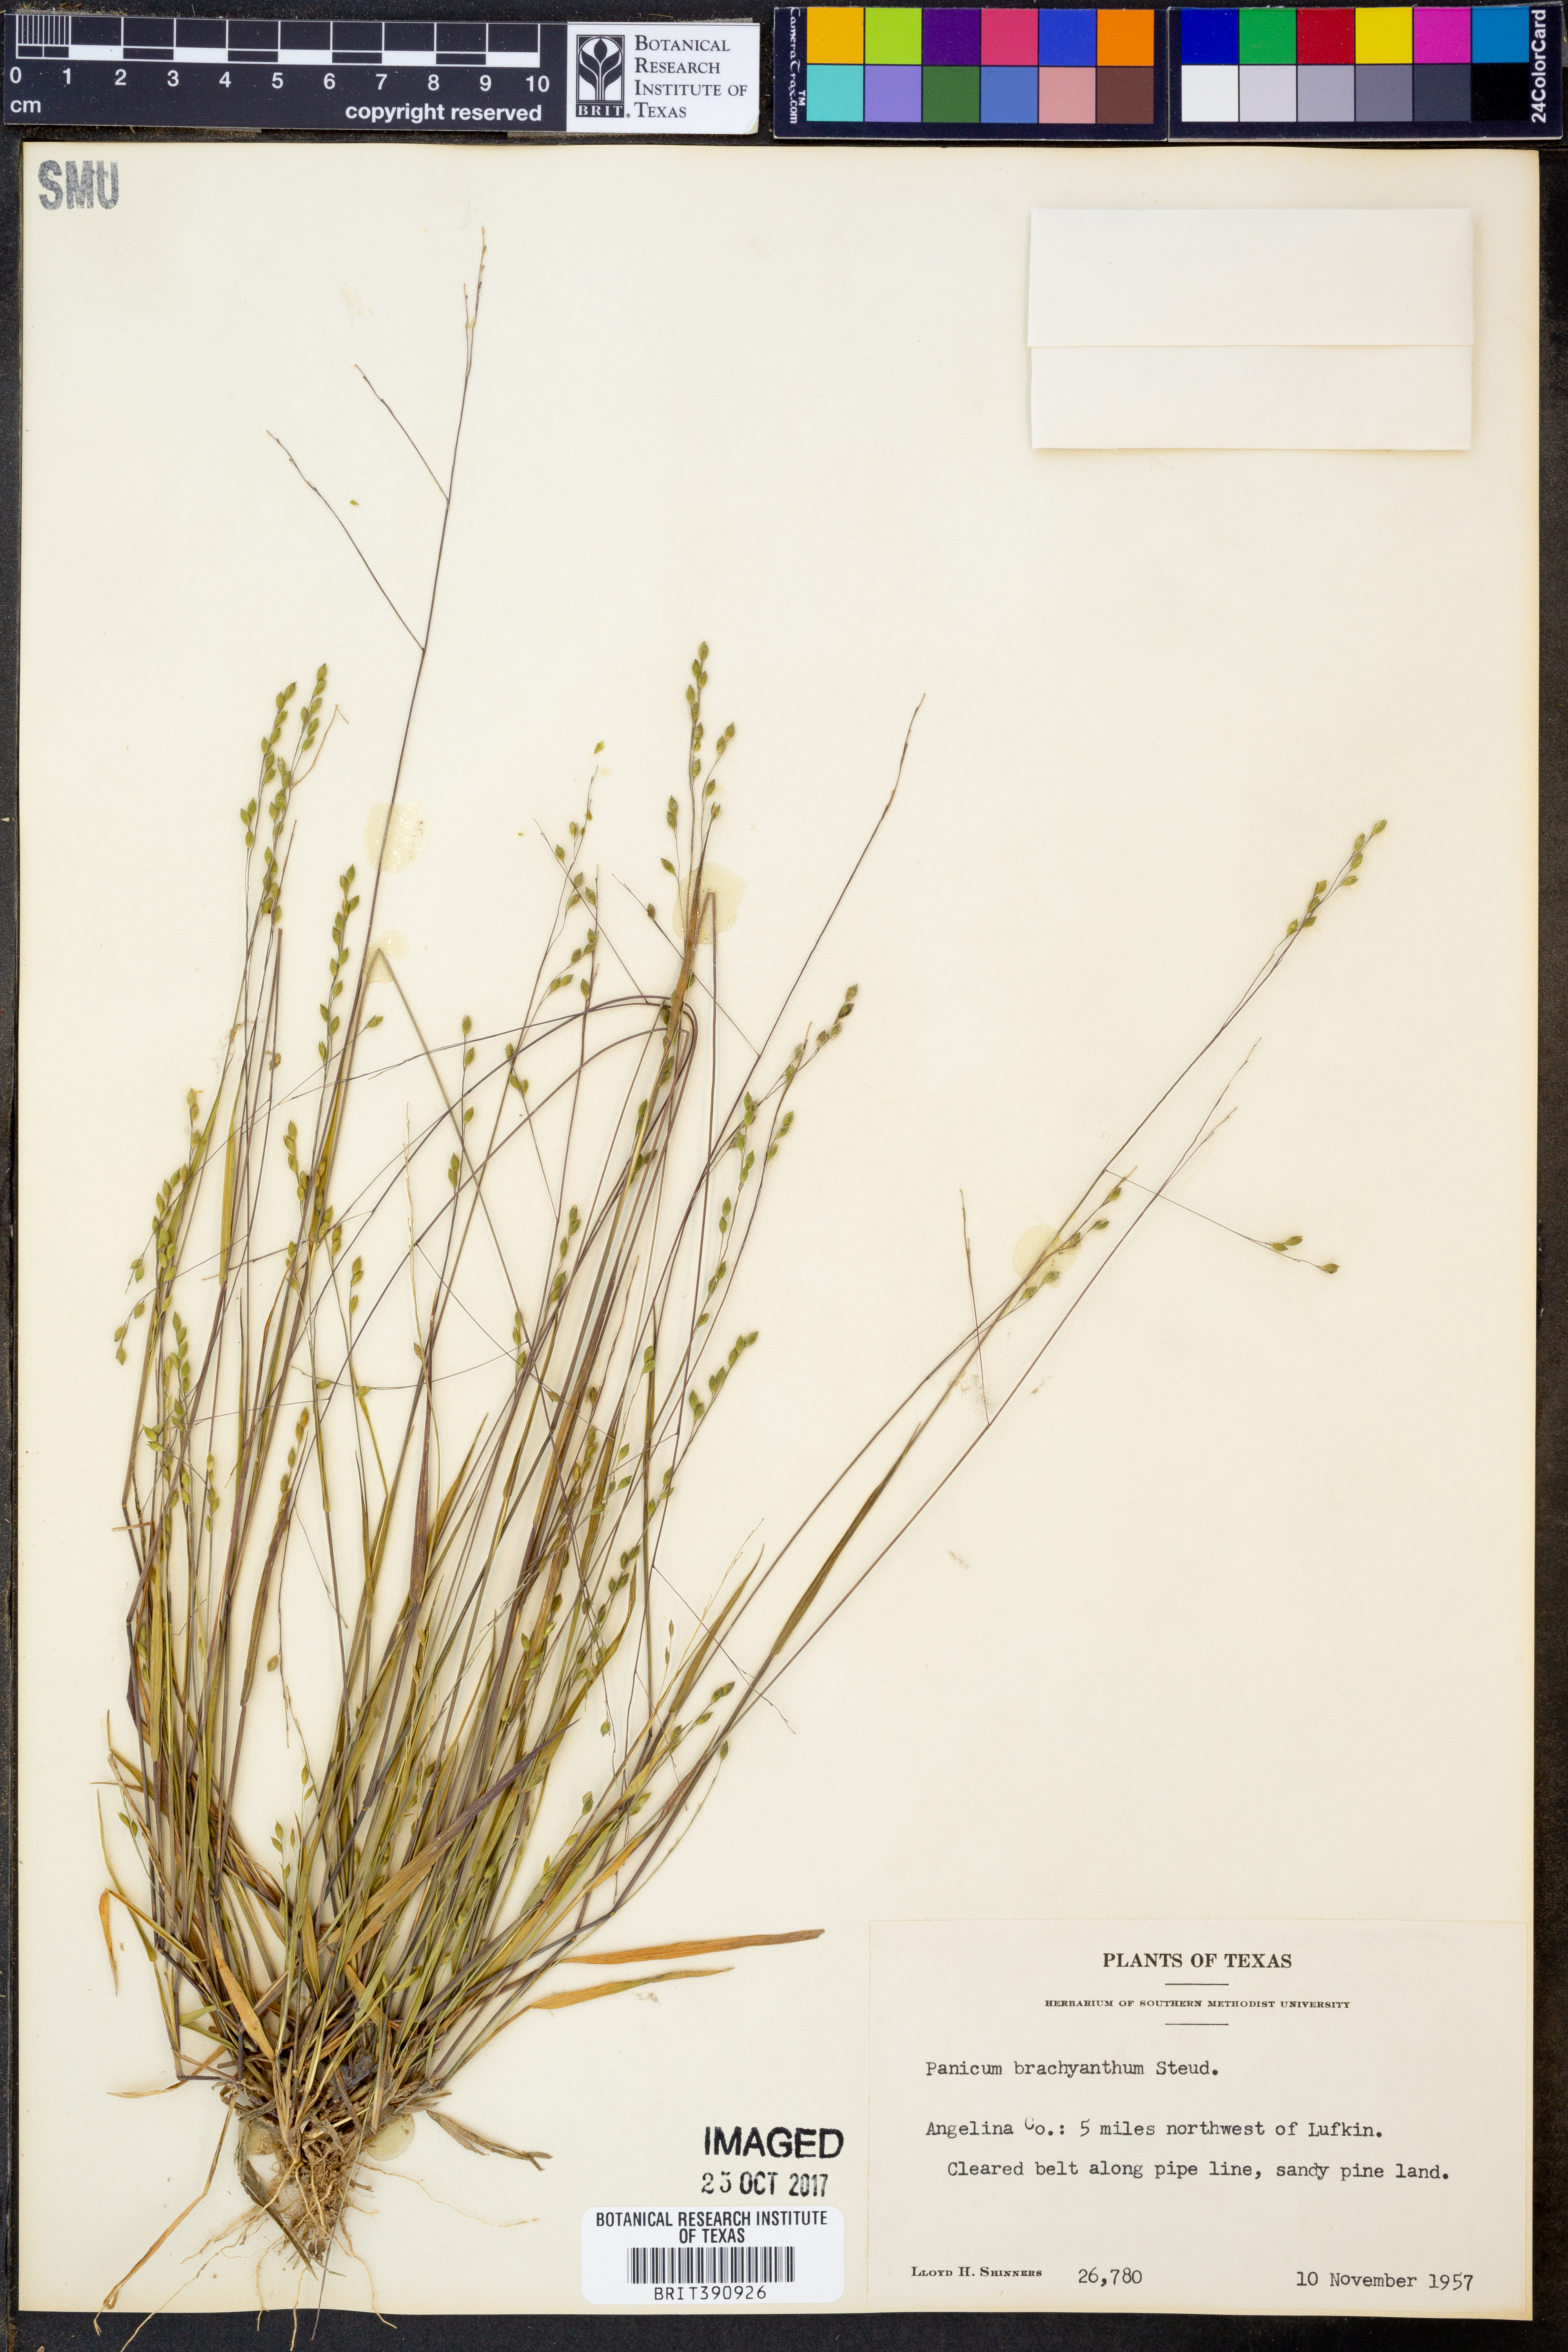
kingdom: Plantae
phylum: Tracheophyta
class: Liliopsida
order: Poales
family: Poaceae
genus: Kellochloa
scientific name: Kellochloa brachyantha
